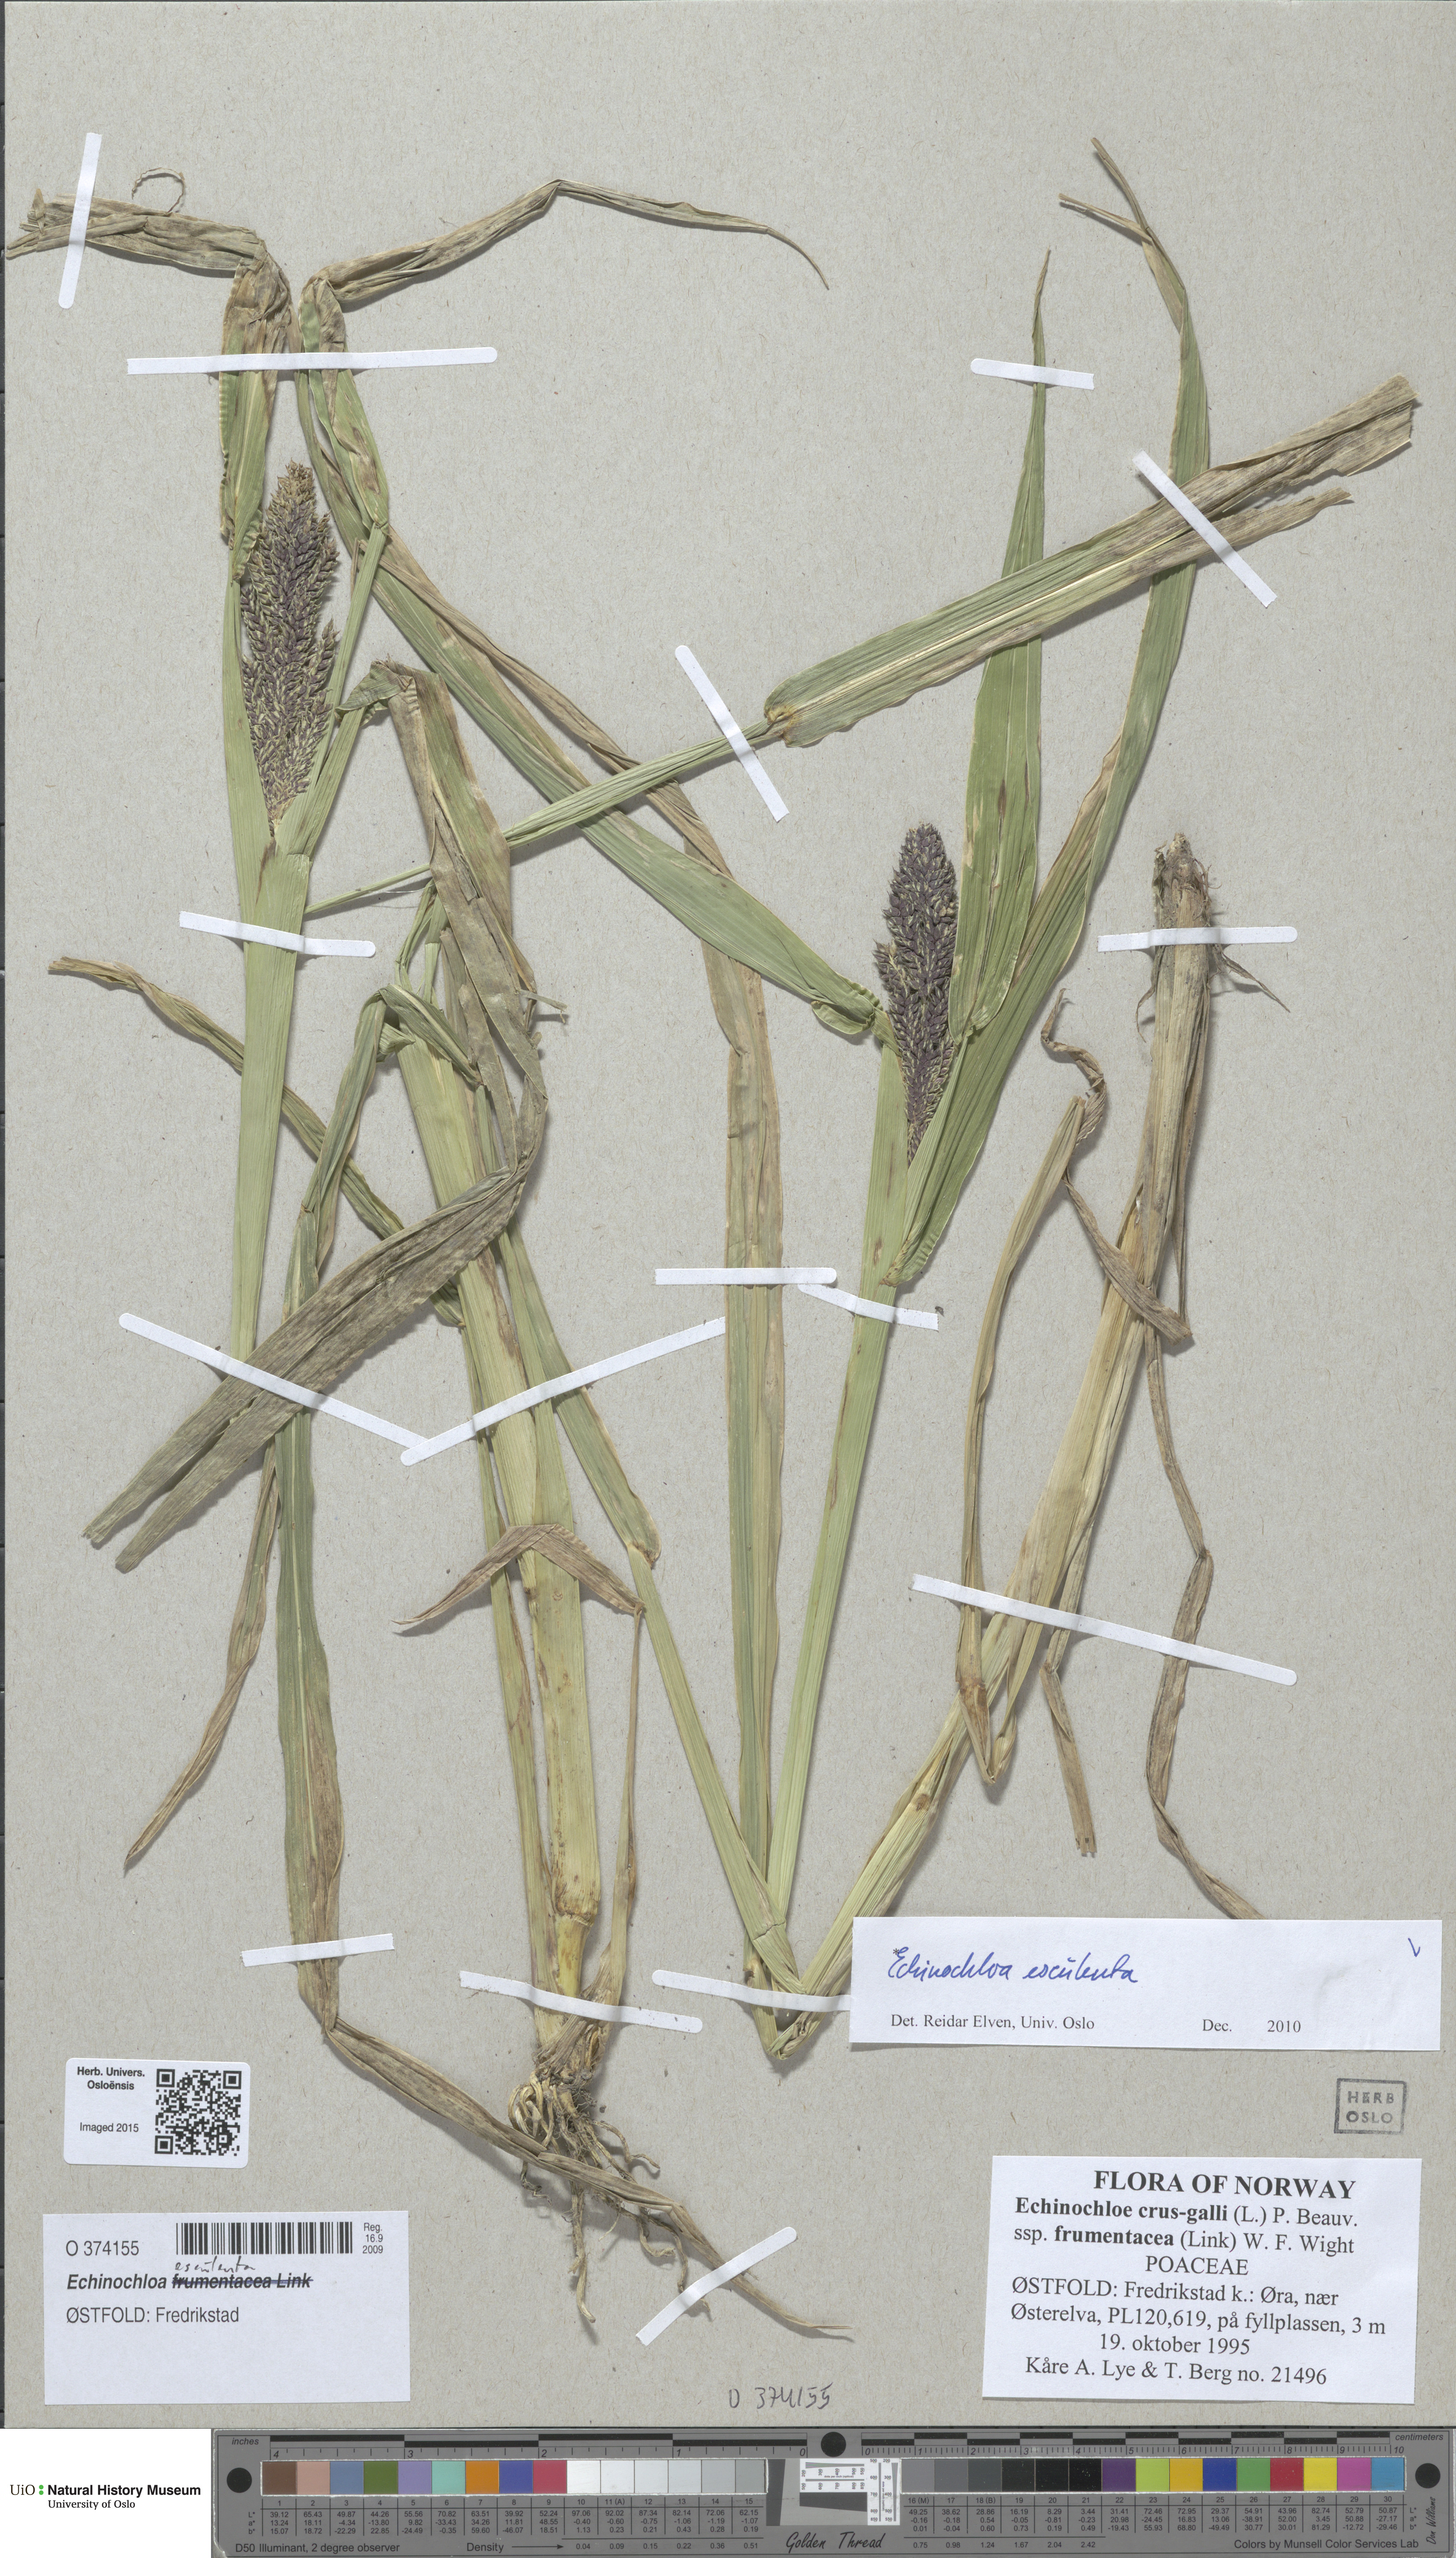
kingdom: Plantae
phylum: Tracheophyta
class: Liliopsida
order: Poales
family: Poaceae
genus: Echinochloa
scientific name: Echinochloa crus-galli
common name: Cockspur
